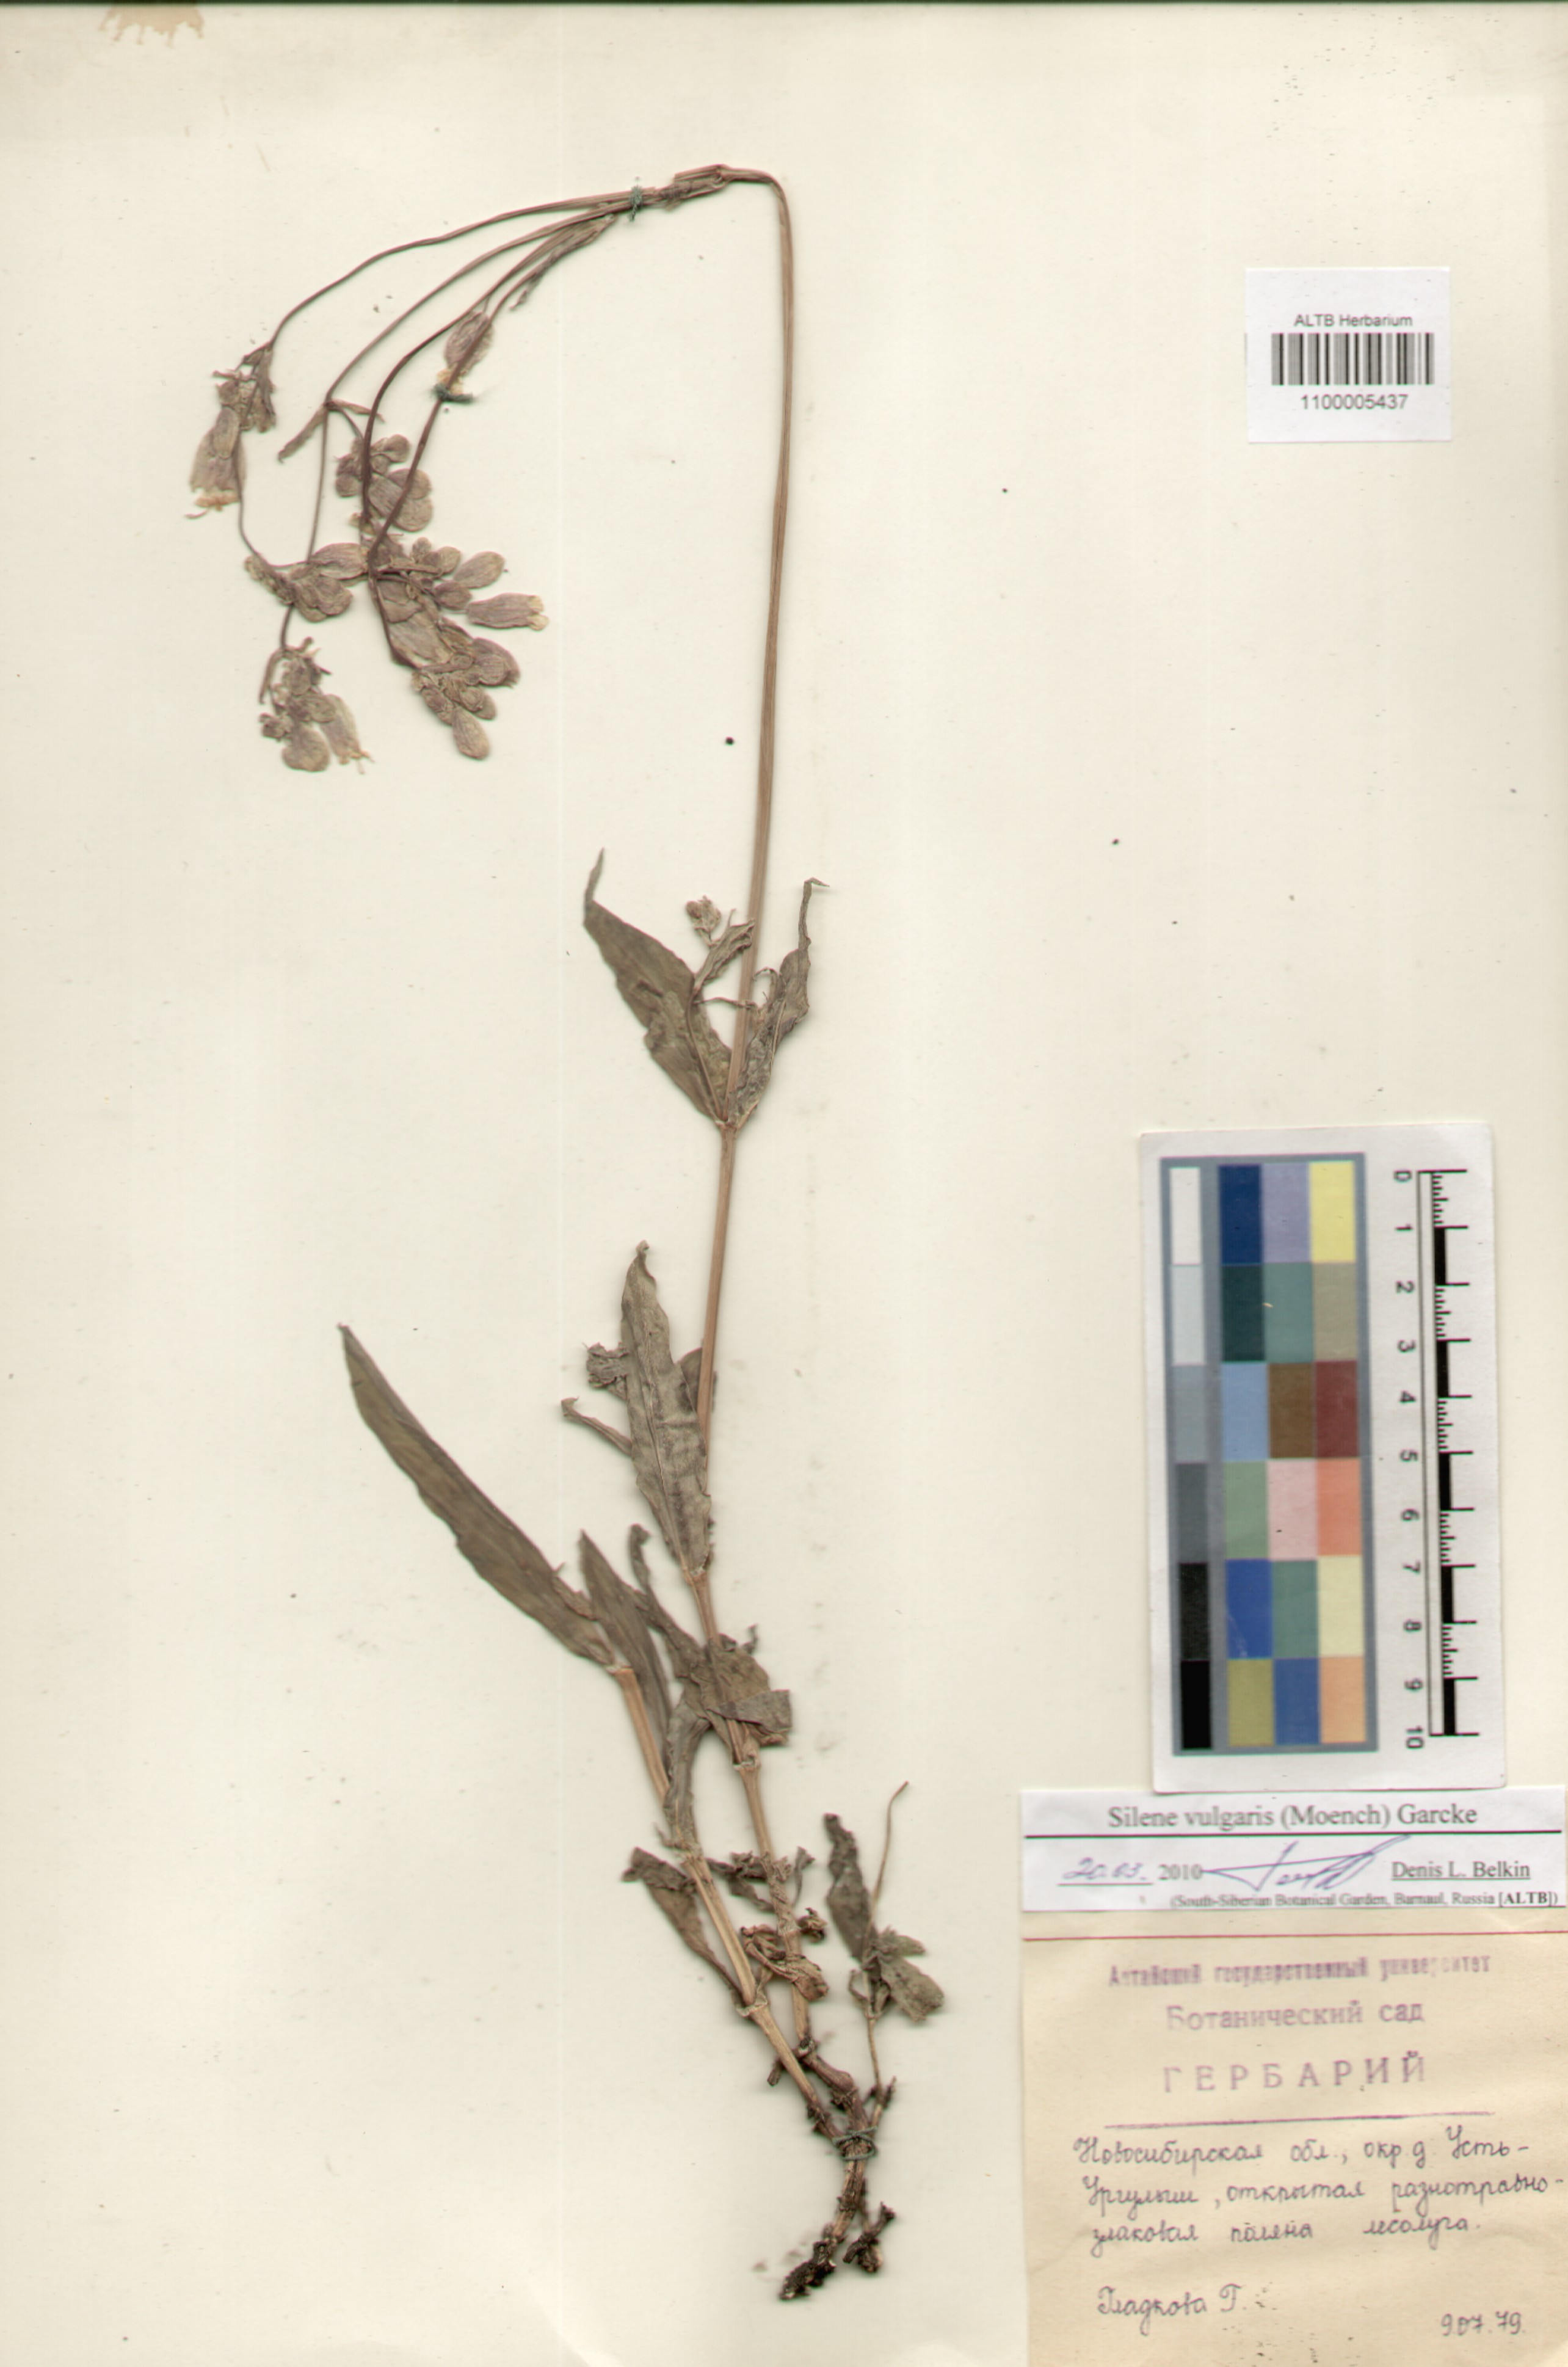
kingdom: Plantae
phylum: Tracheophyta
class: Magnoliopsida
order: Caryophyllales
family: Caryophyllaceae
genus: Silene
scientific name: Silene vulgaris
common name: Bladder campion
